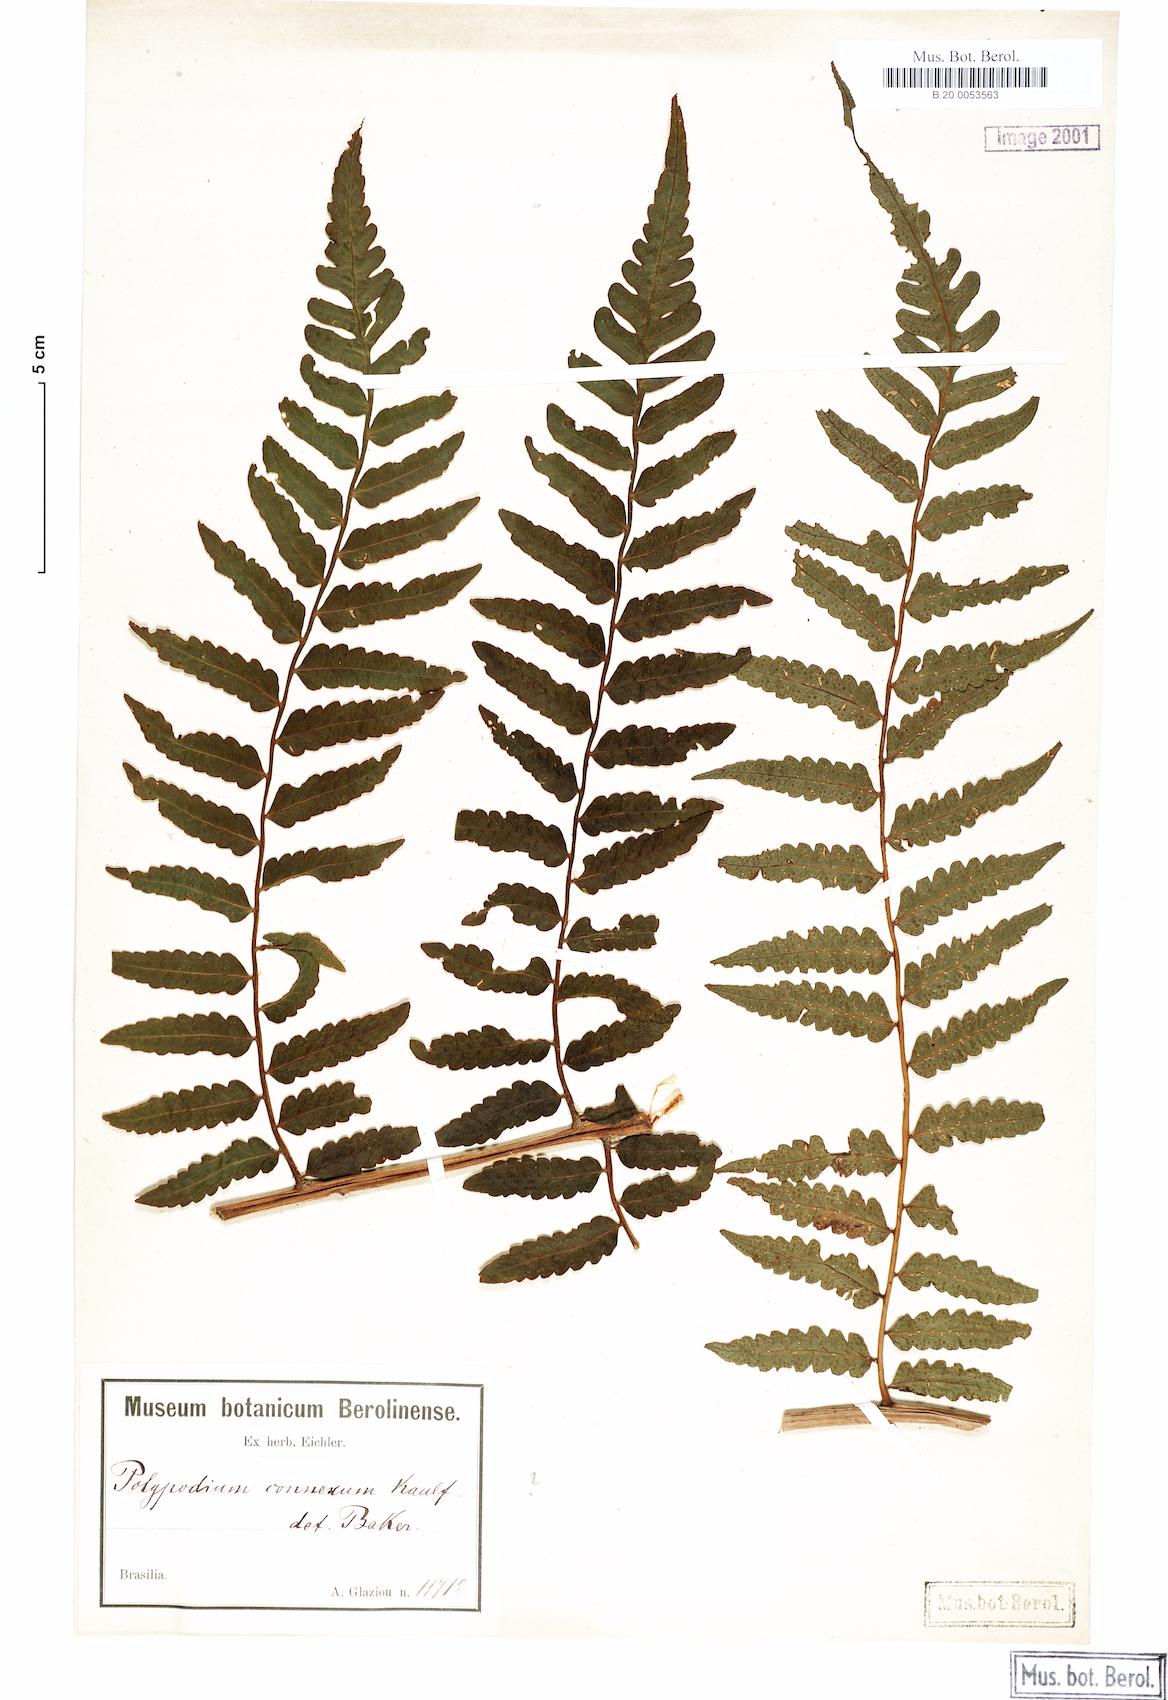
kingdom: Plantae
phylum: Tracheophyta
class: Polypodiopsida
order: Polypodiales
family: Dryopteridaceae
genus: Megalastrum
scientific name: Megalastrum connexum
